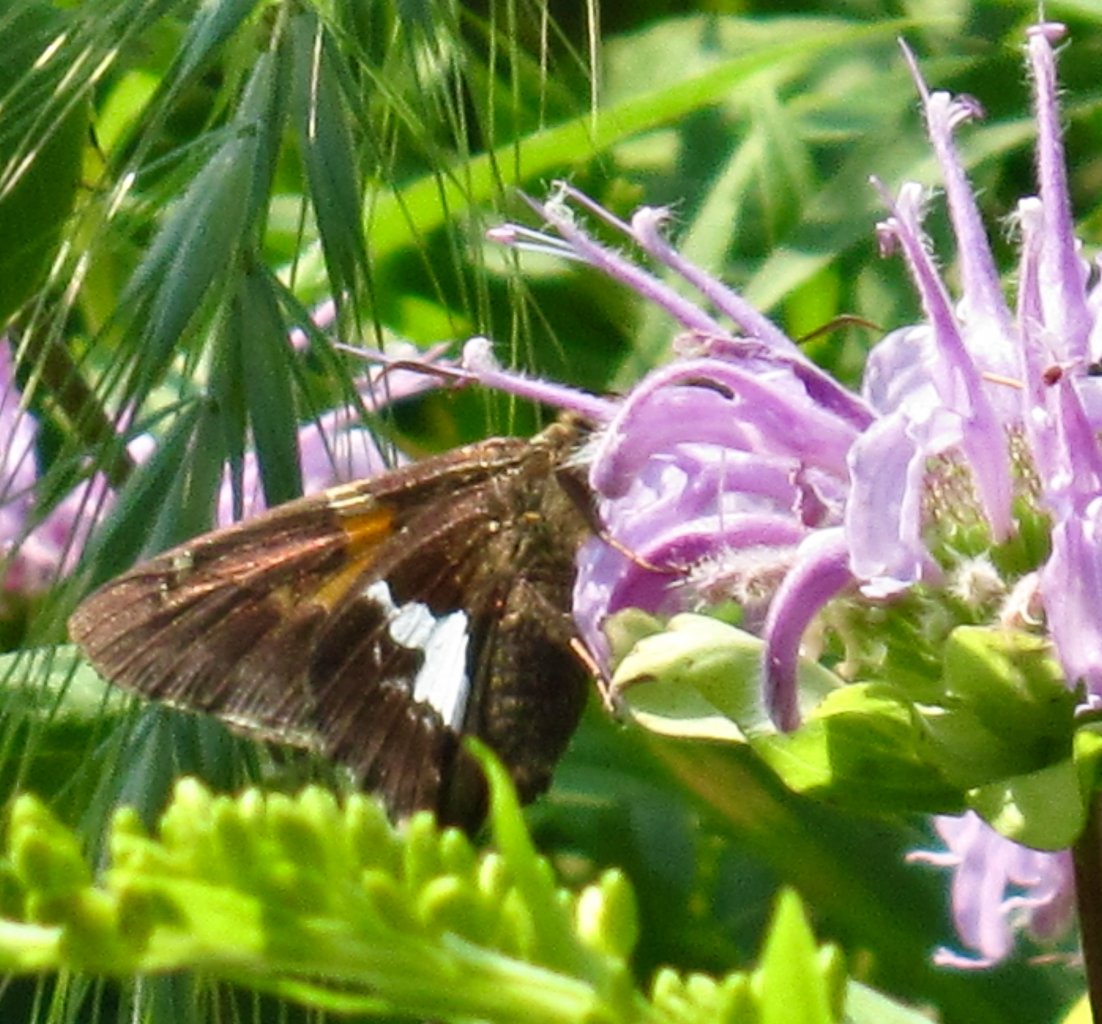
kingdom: Animalia
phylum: Arthropoda
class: Insecta
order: Lepidoptera
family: Hesperiidae
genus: Epargyreus
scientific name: Epargyreus clarus
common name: Silver-spotted Skipper
